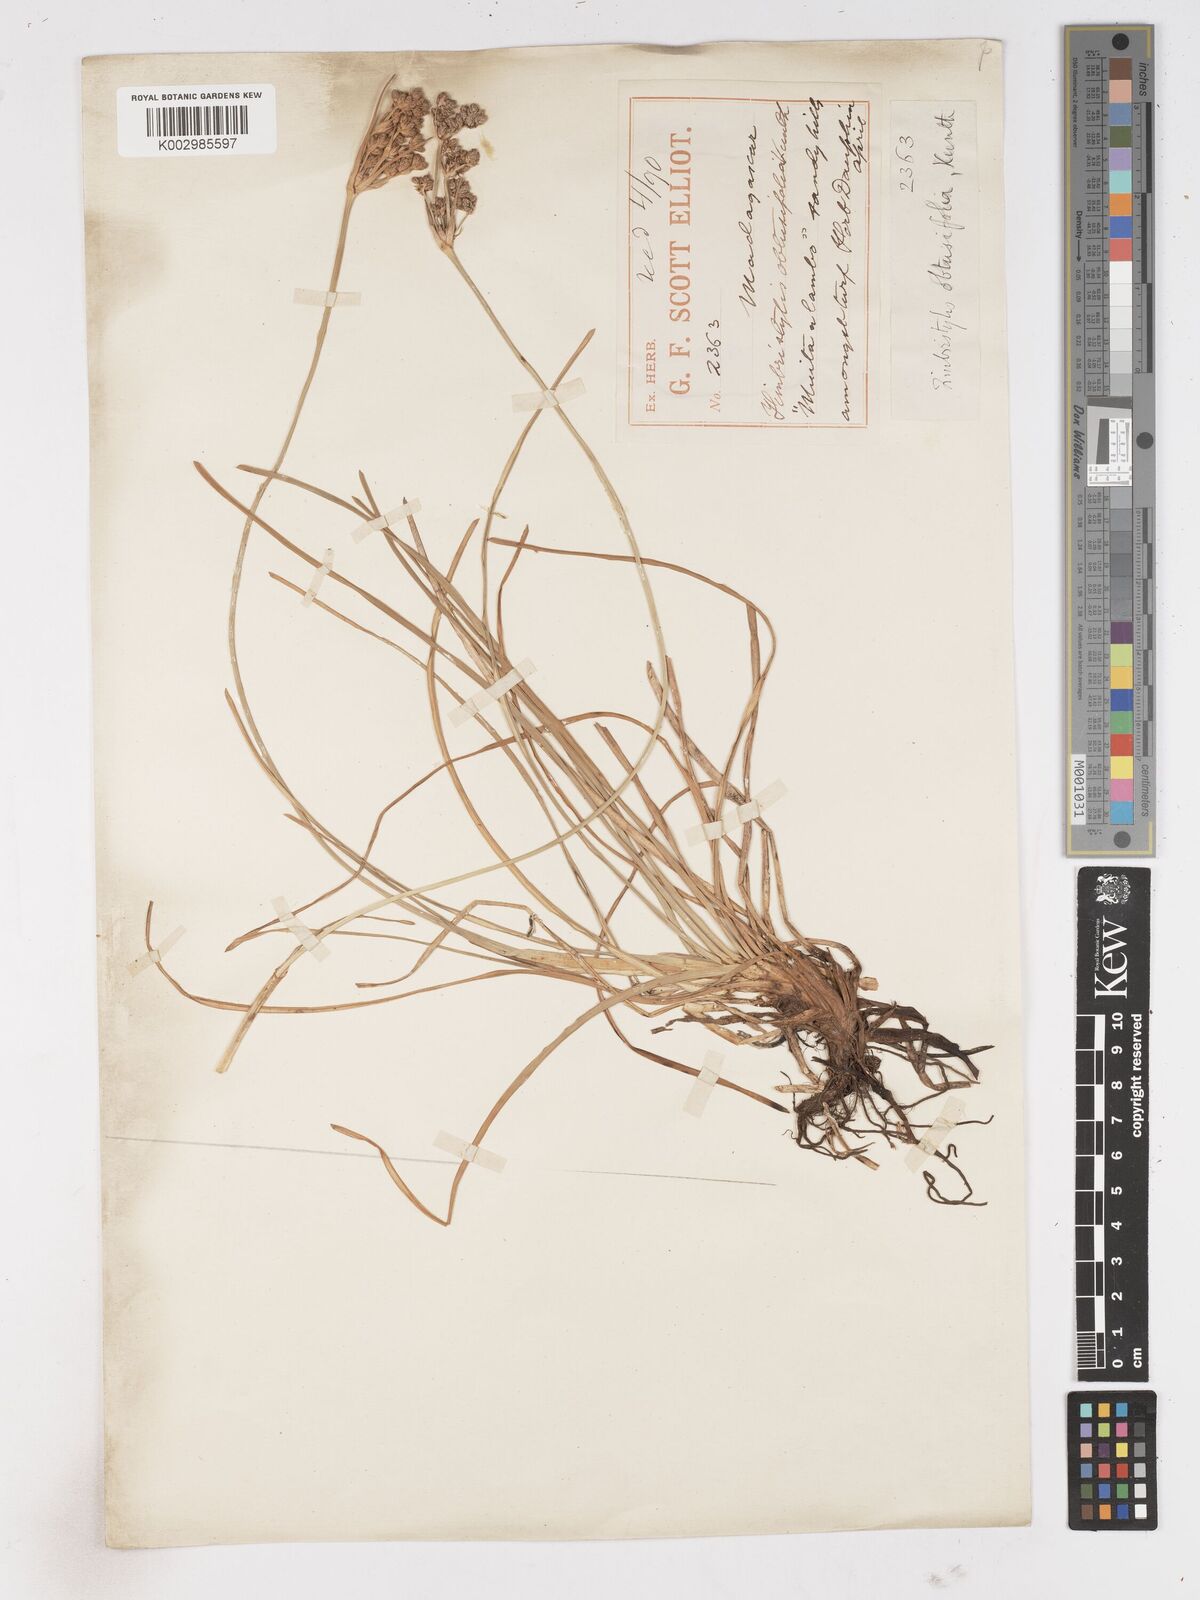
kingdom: Plantae
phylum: Tracheophyta
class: Liliopsida
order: Poales
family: Cyperaceae
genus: Fimbristylis
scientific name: Fimbristylis cymosa
